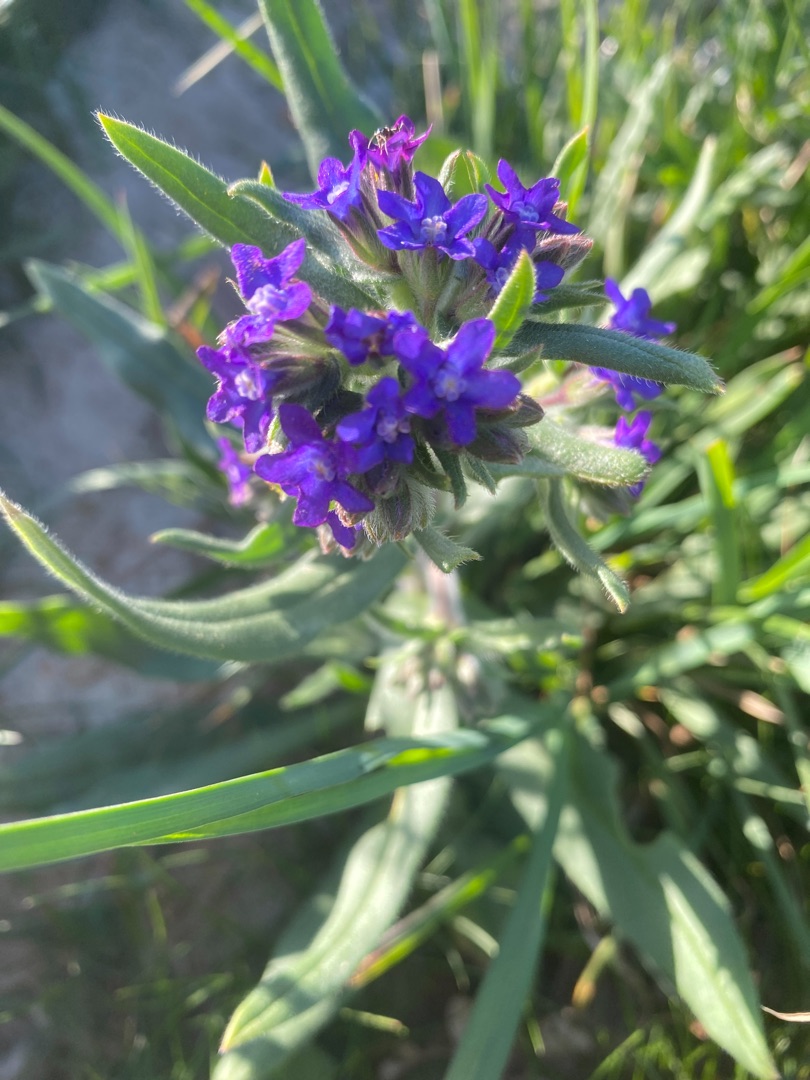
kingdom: Plantae
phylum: Tracheophyta
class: Magnoliopsida
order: Boraginales
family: Boraginaceae
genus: Anchusa
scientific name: Anchusa officinalis
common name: Læge-oksetunge
